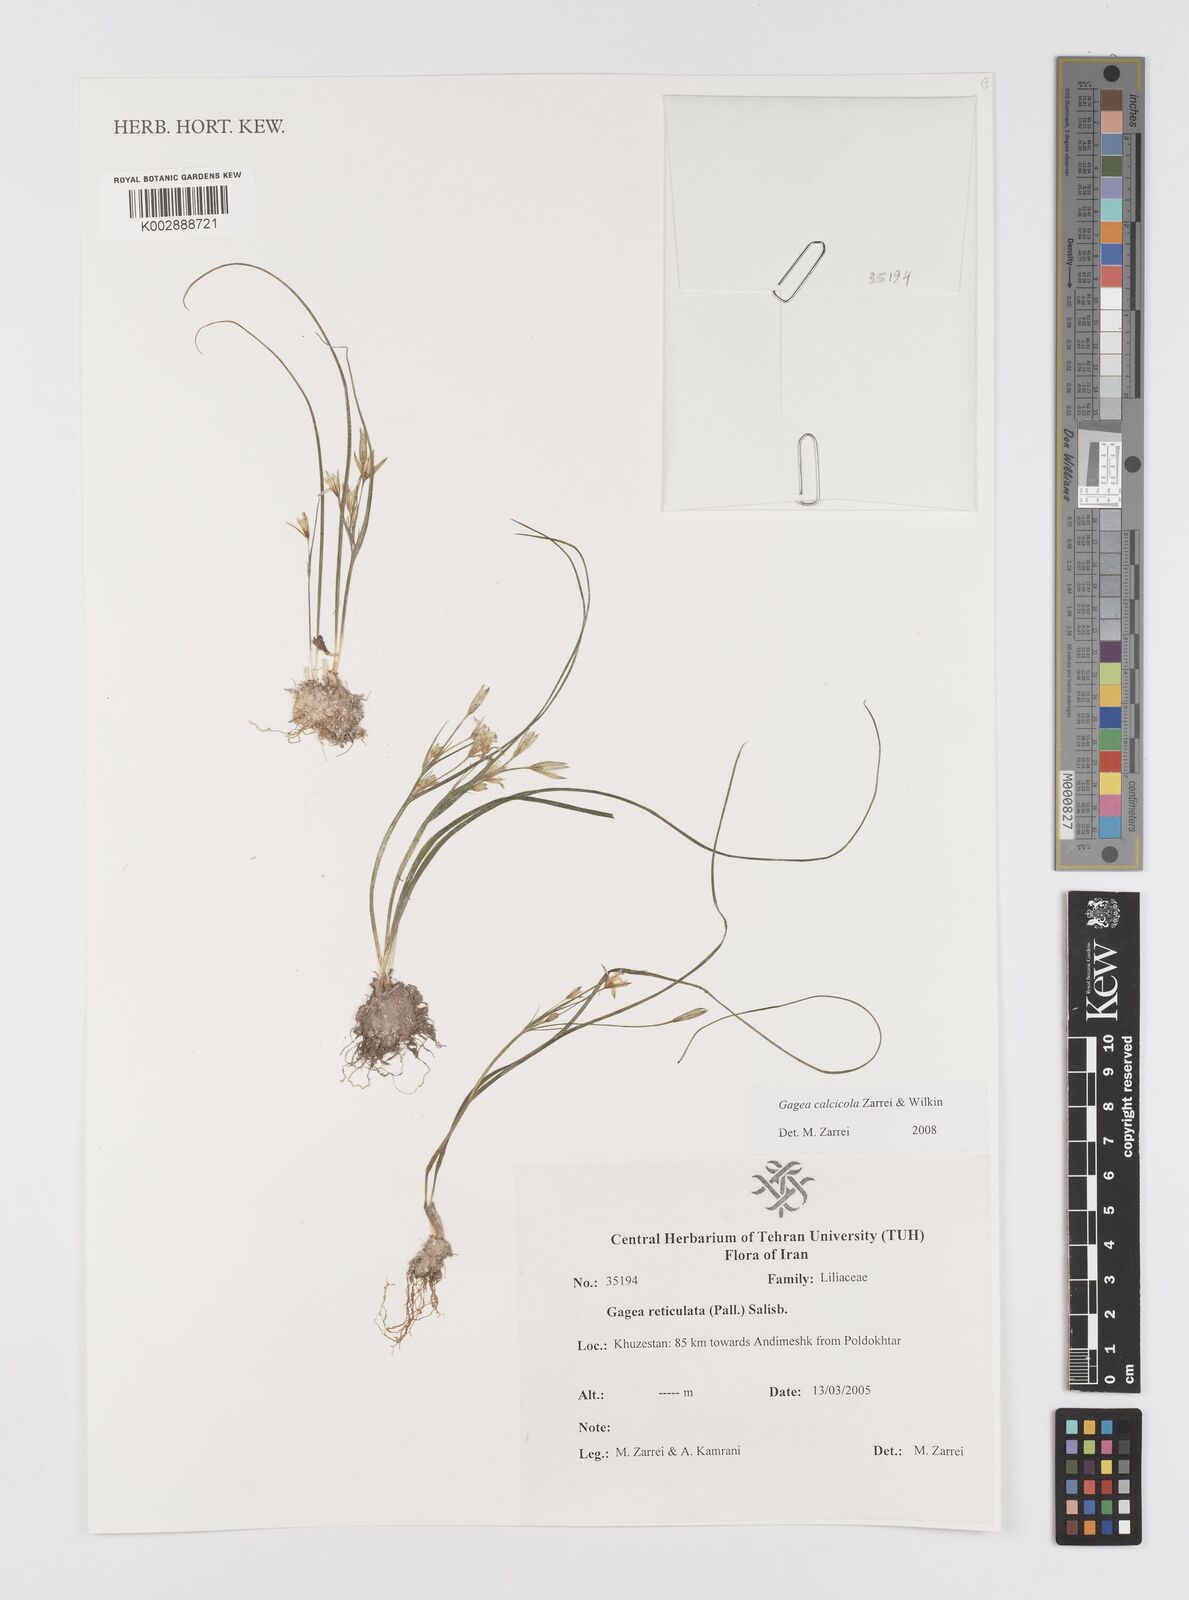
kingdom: Plantae
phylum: Tracheophyta
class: Liliopsida
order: Liliales
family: Liliaceae
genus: Gagea
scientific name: Gagea calcicola
